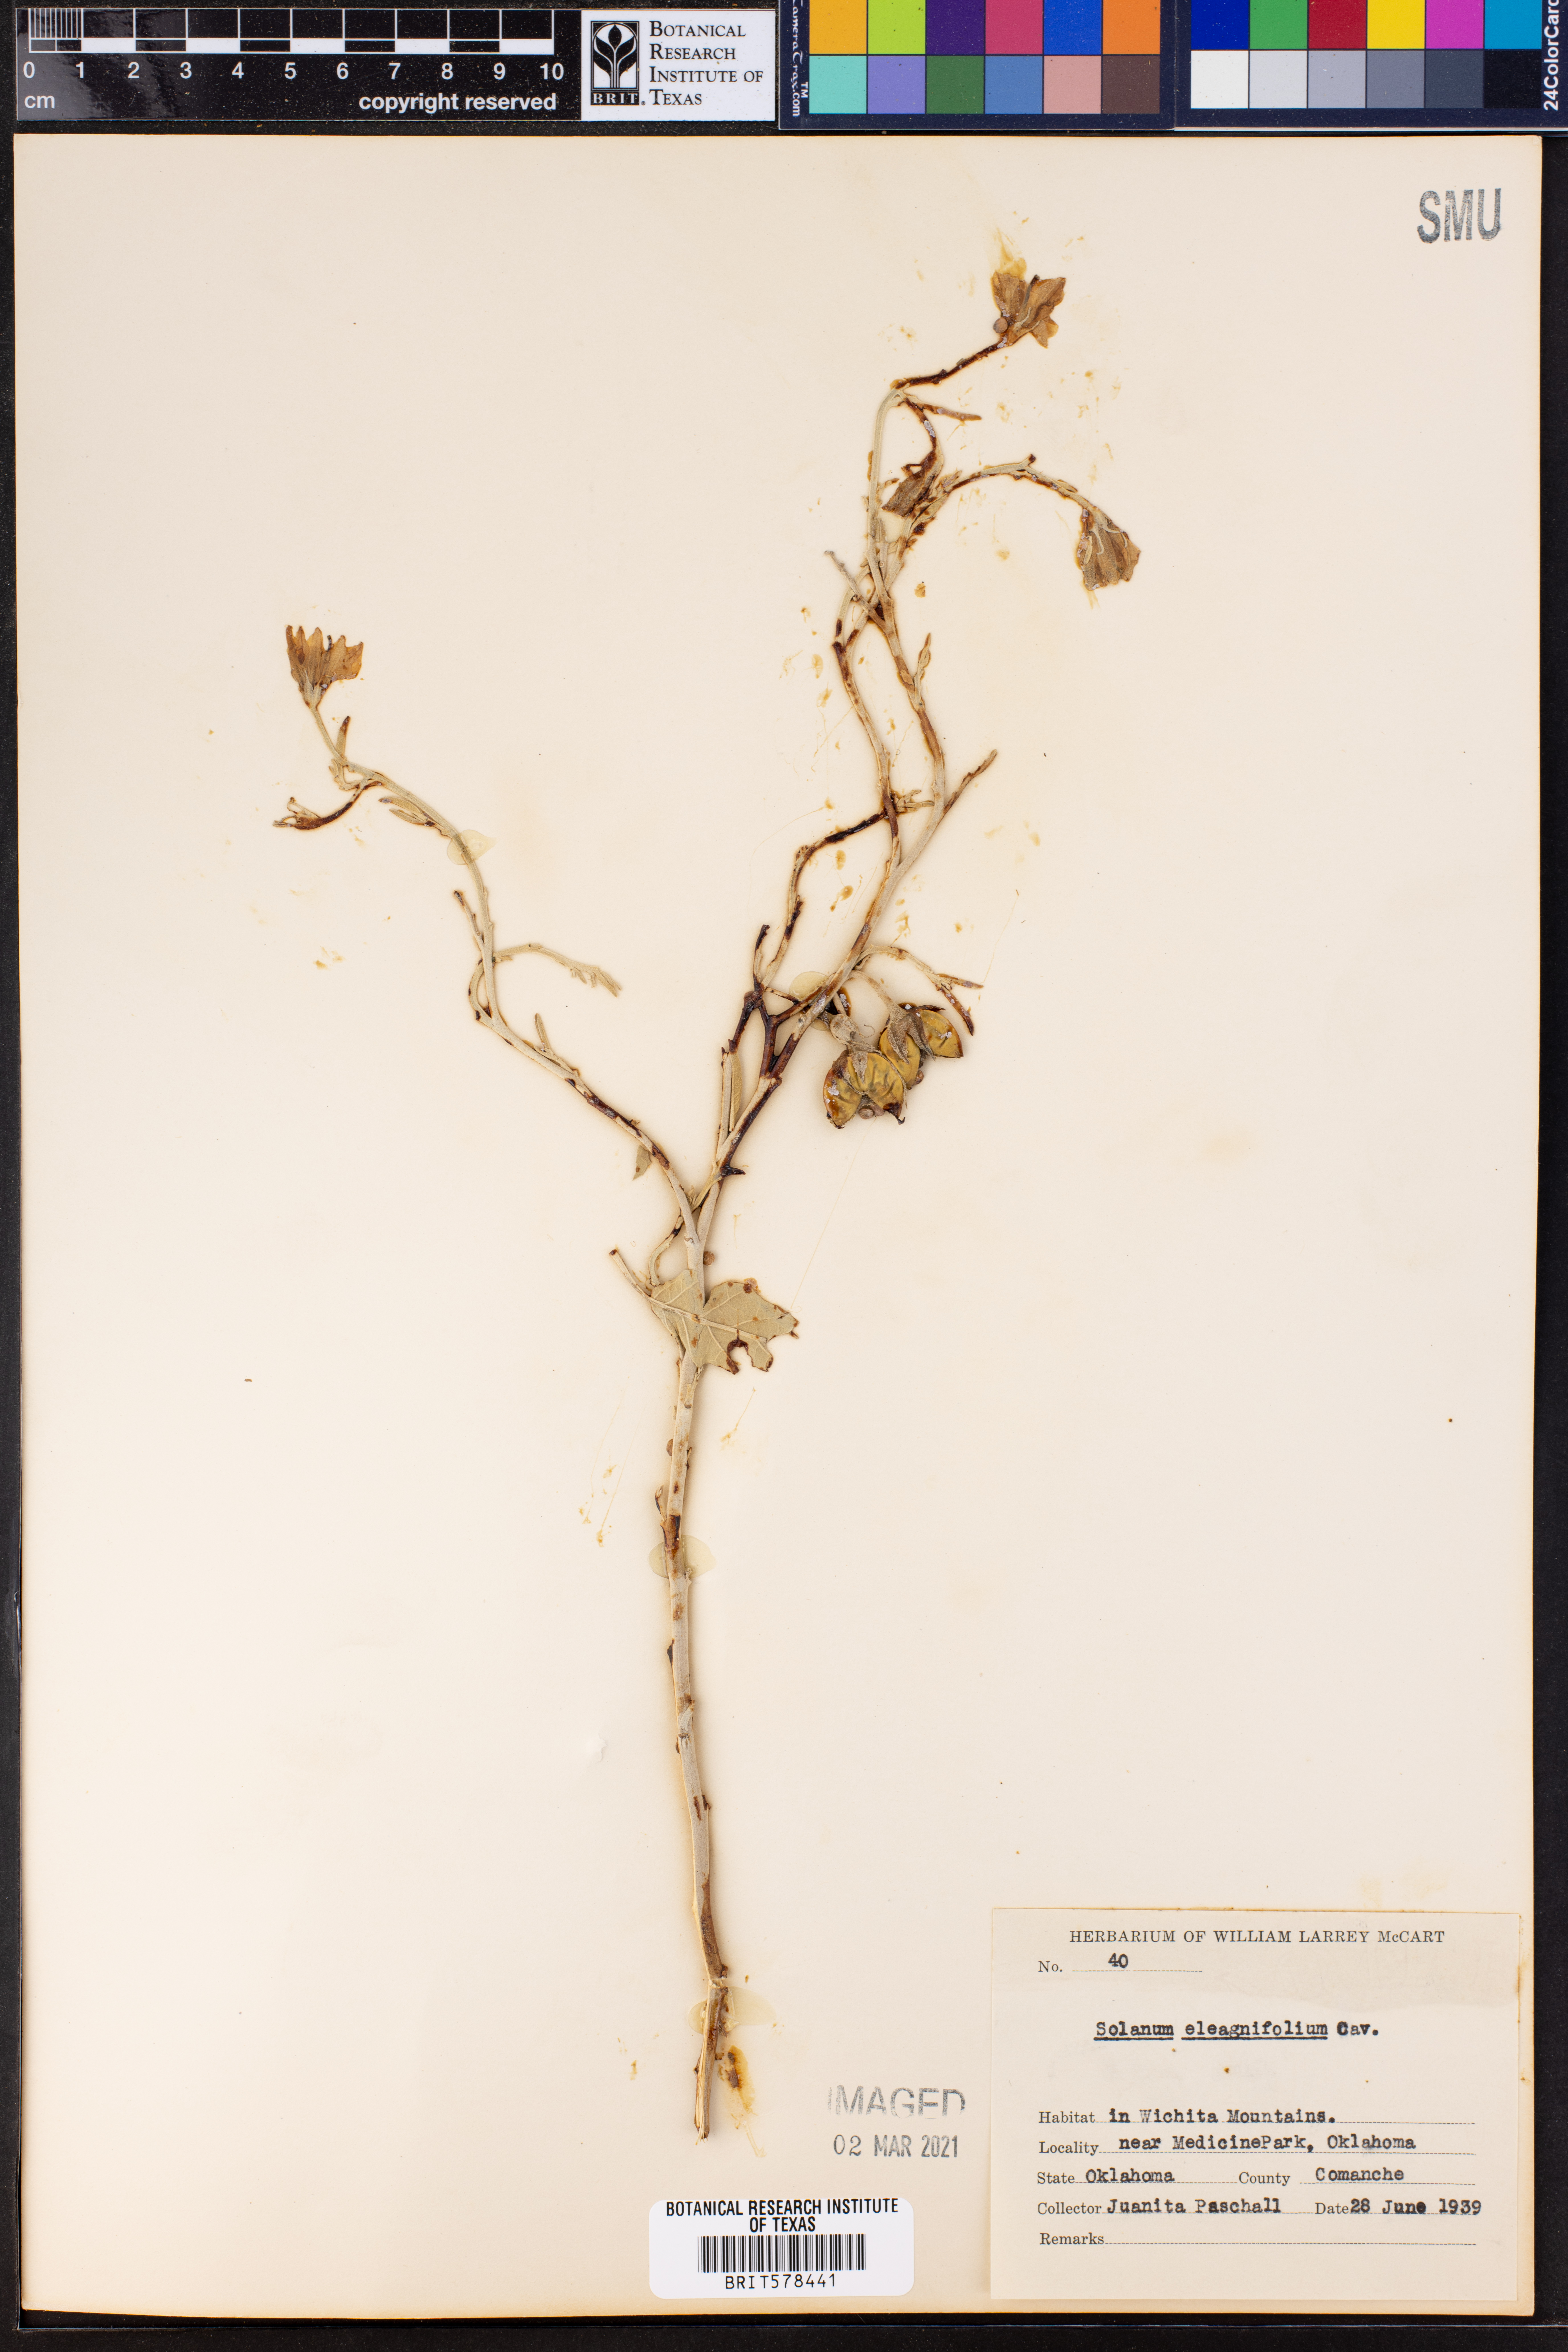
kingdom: Plantae
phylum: Tracheophyta
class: Magnoliopsida
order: Solanales
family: Solanaceae
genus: Solanum
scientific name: Solanum elaeagnifolium
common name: Silverleaf nightshade
